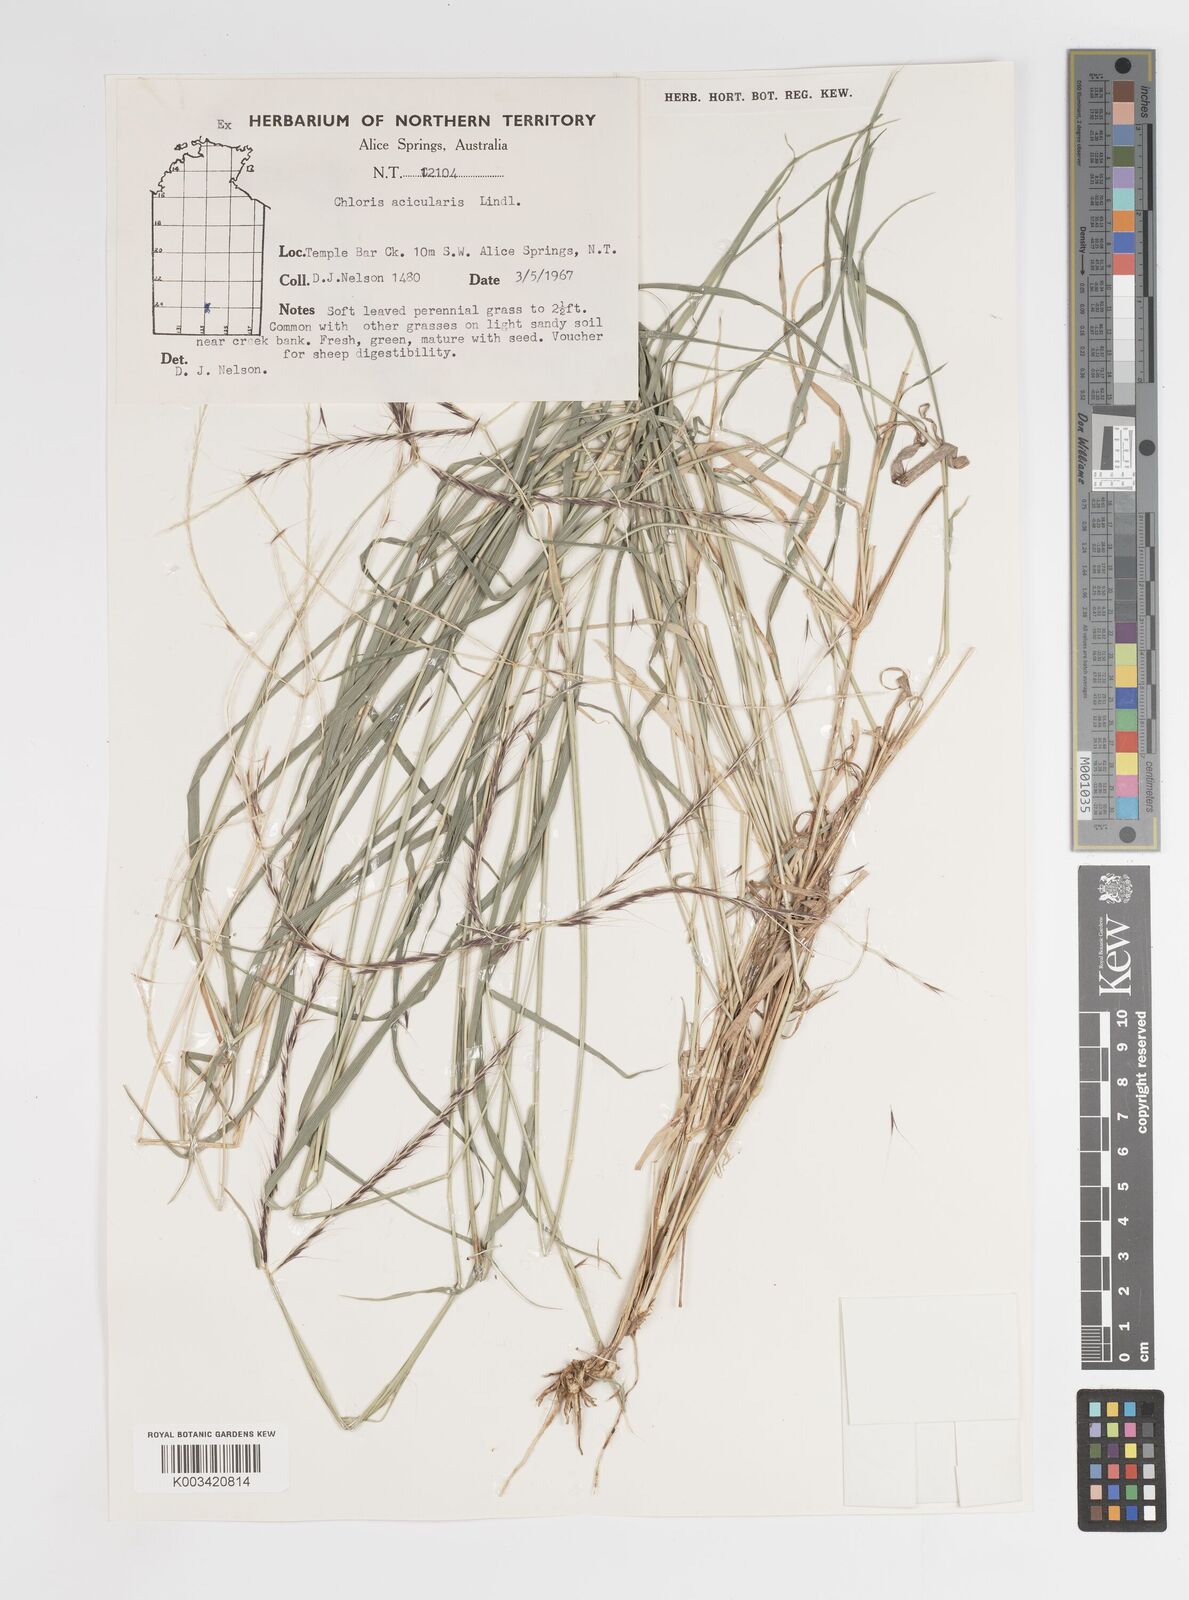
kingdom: Plantae
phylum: Tracheophyta
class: Liliopsida
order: Poales
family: Poaceae
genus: Enteropogon
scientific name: Enteropogon acicularis
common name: Curly windmill grass
